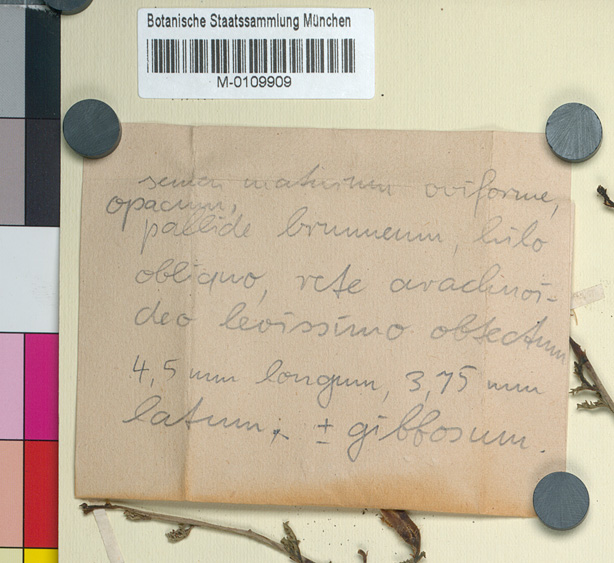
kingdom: Plantae
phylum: Tracheophyta
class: Magnoliopsida
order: Solanales
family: Convolvulaceae
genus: Distimake
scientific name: Distimake guerichii
